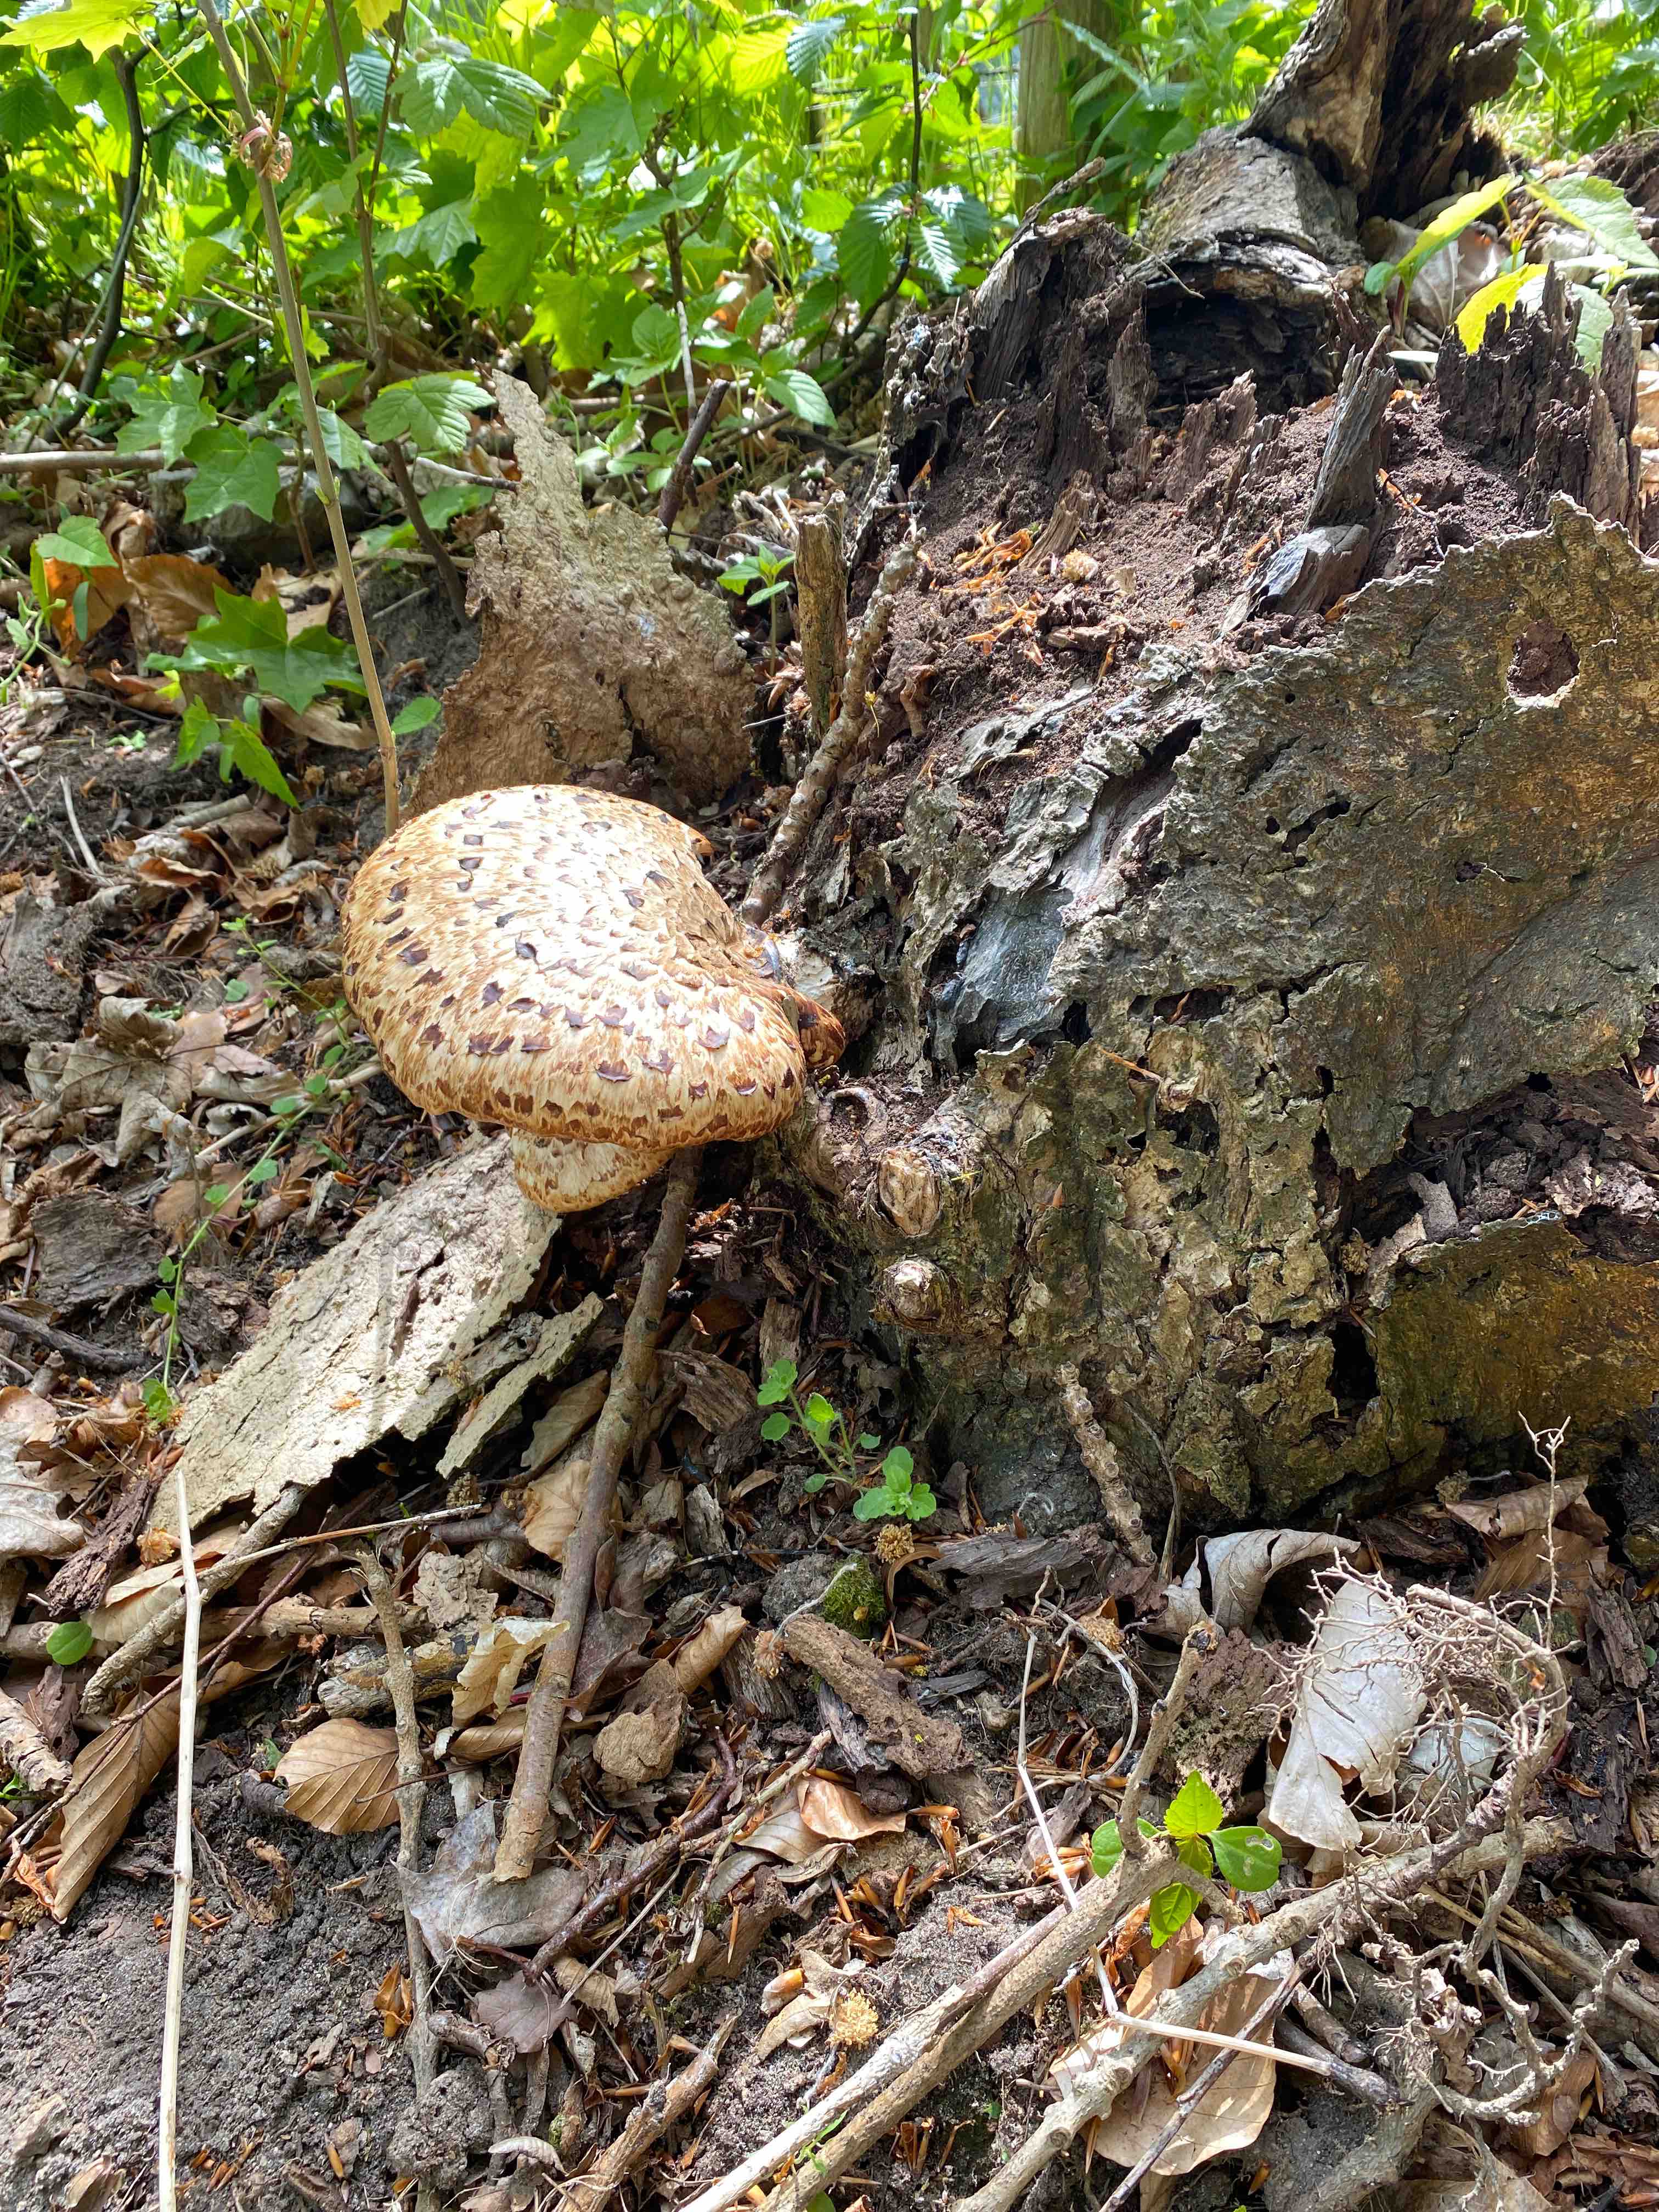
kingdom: Fungi
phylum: Basidiomycota
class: Agaricomycetes
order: Polyporales
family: Polyporaceae
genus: Cerioporus
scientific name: Cerioporus squamosus
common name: skællet stilkporesvamp
